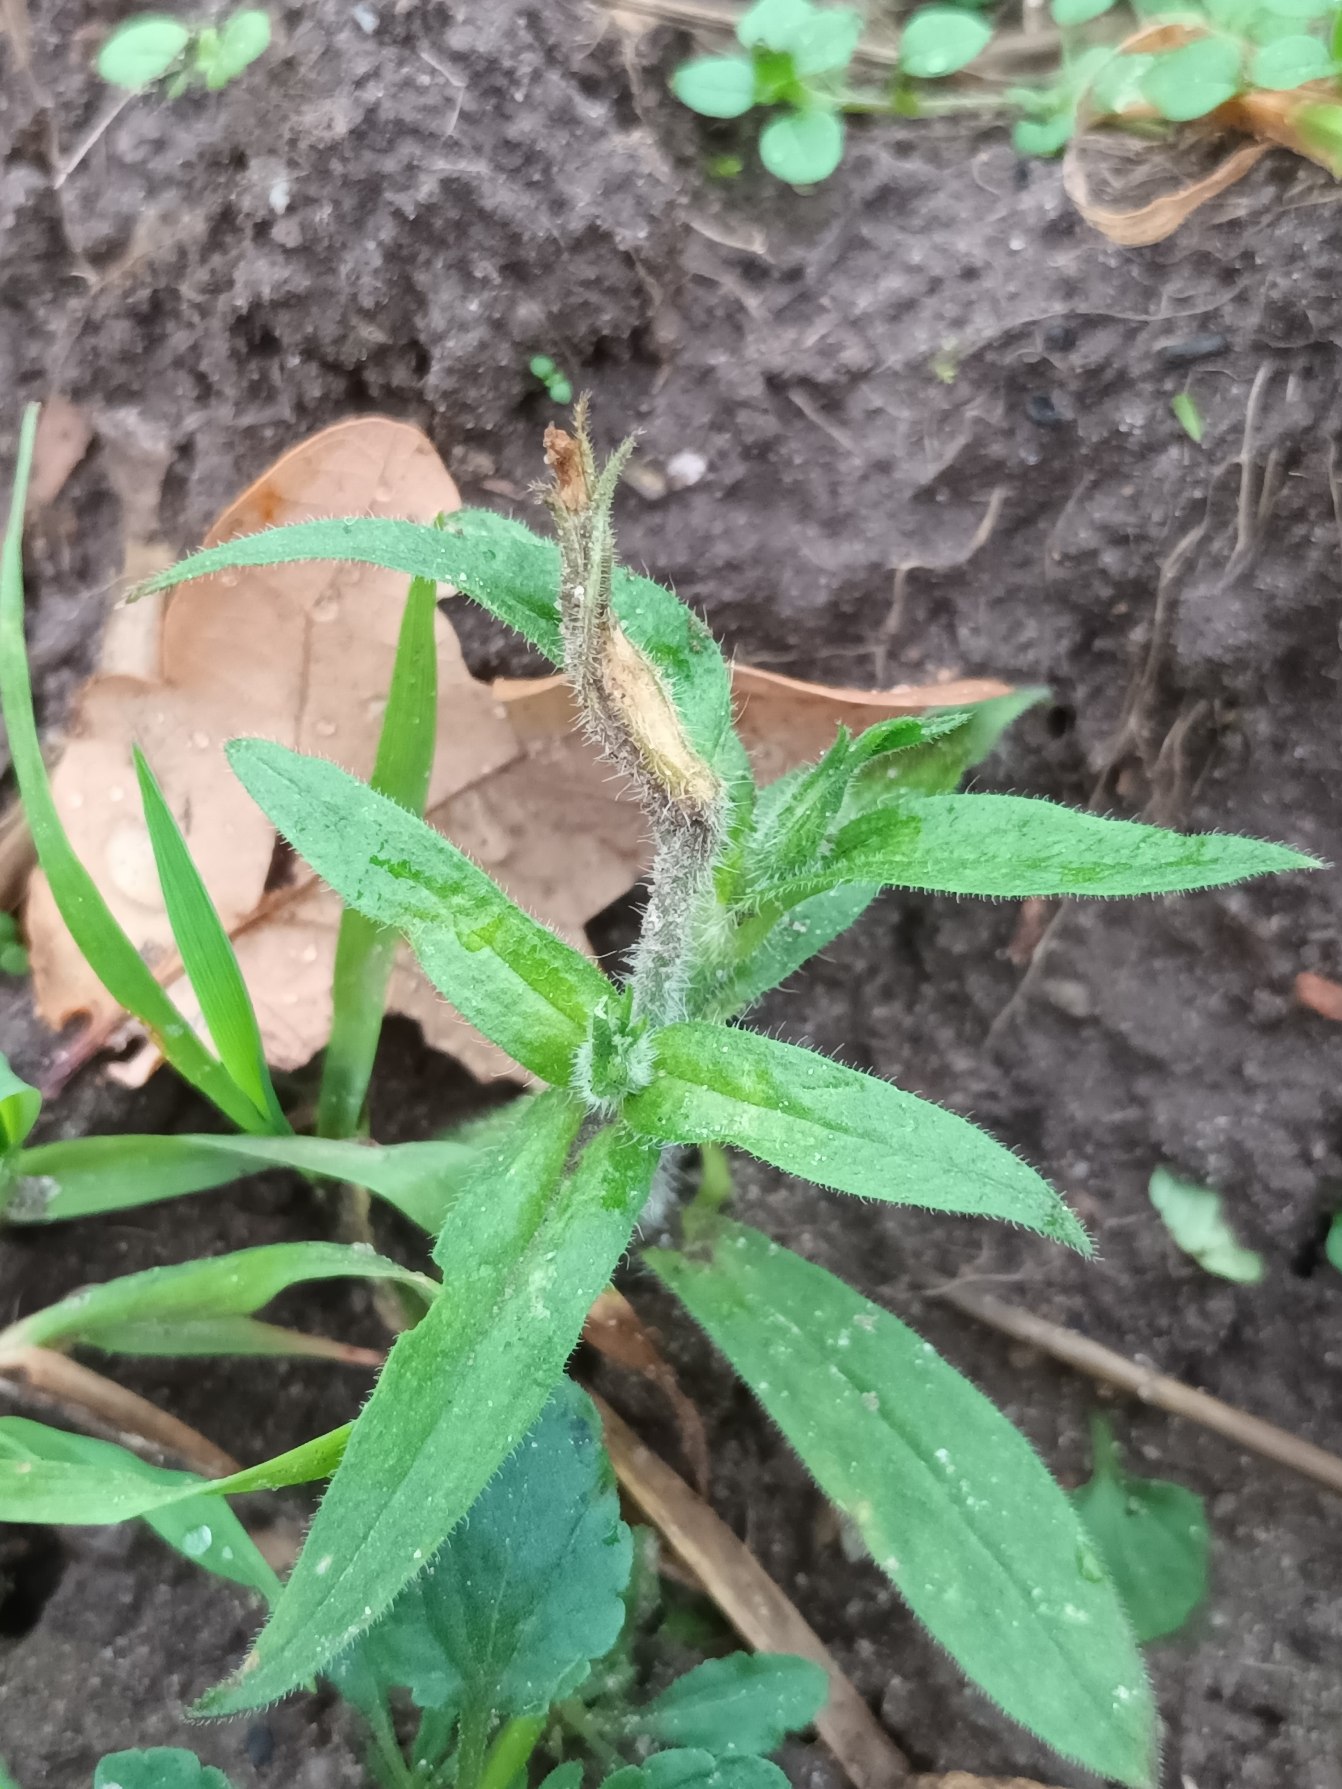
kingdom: Plantae
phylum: Tracheophyta
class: Magnoliopsida
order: Caryophyllales
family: Caryophyllaceae
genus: Silene
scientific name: Silene noctiflora
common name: Nat-limurt
